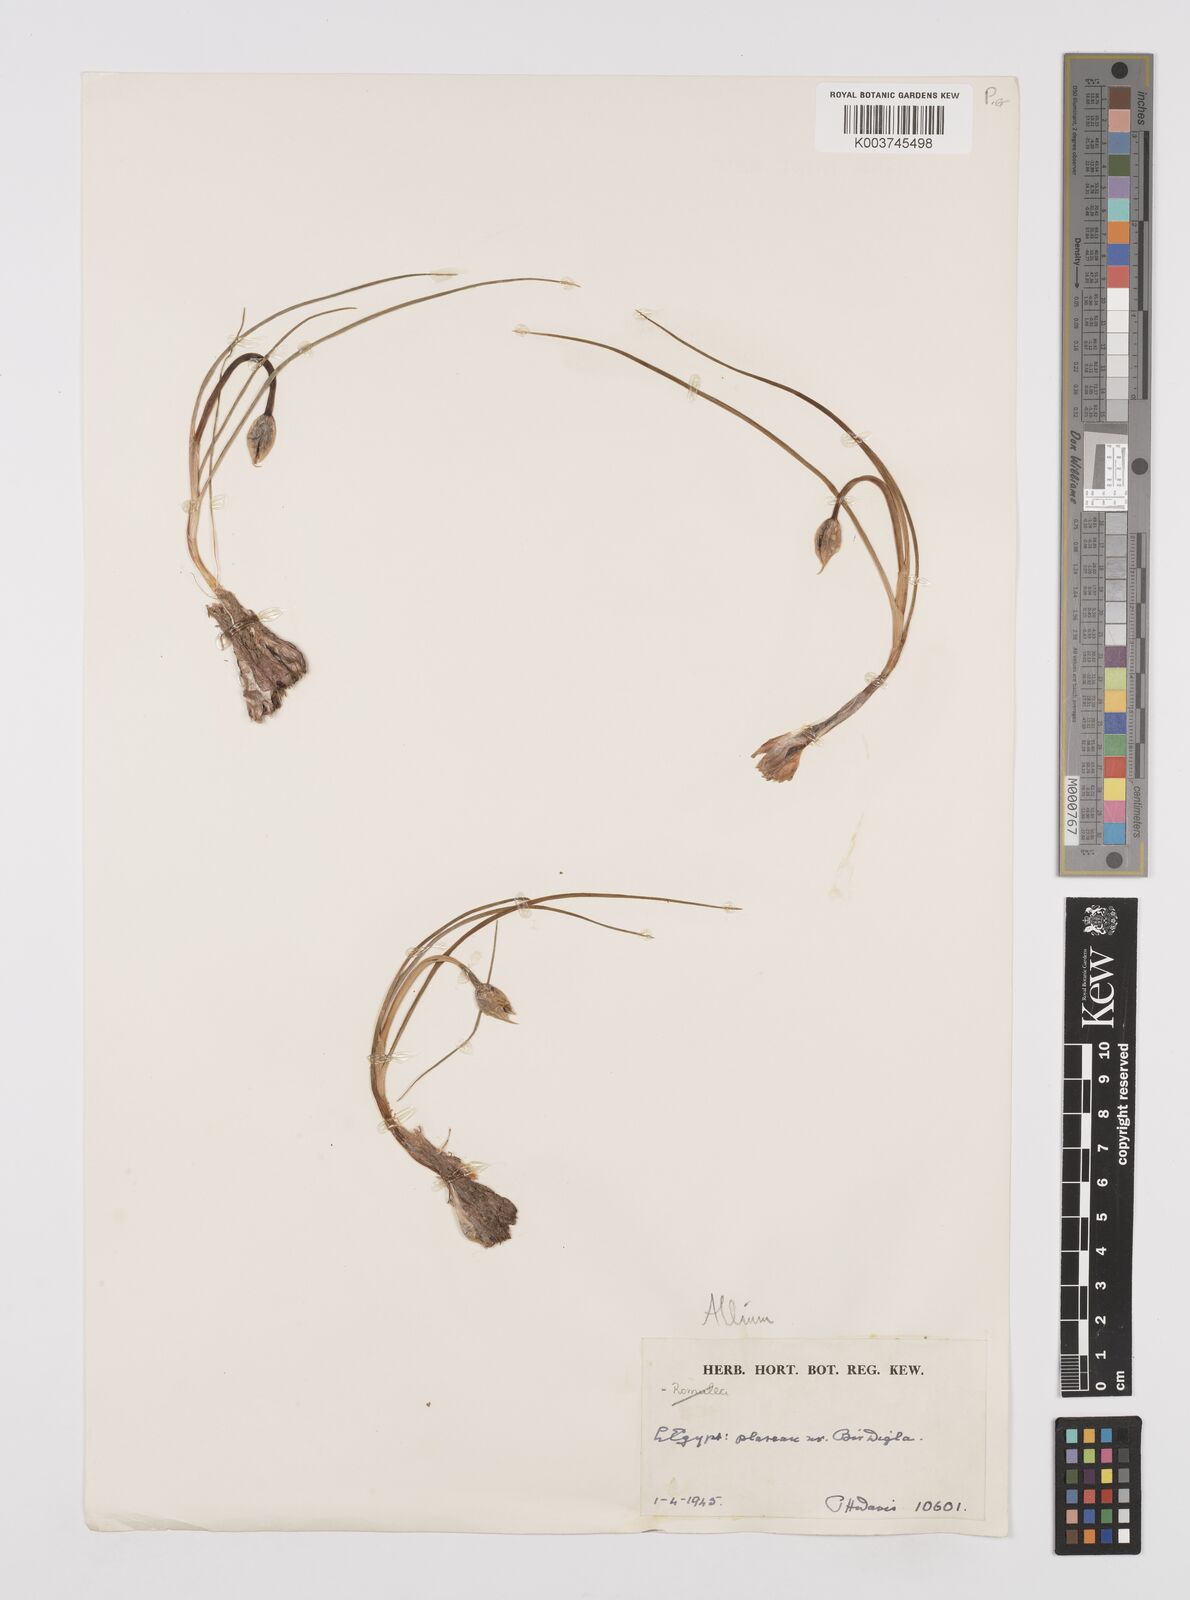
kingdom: Plantae
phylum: Tracheophyta
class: Liliopsida
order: Asparagales
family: Amaryllidaceae
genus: Allium
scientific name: Allium
